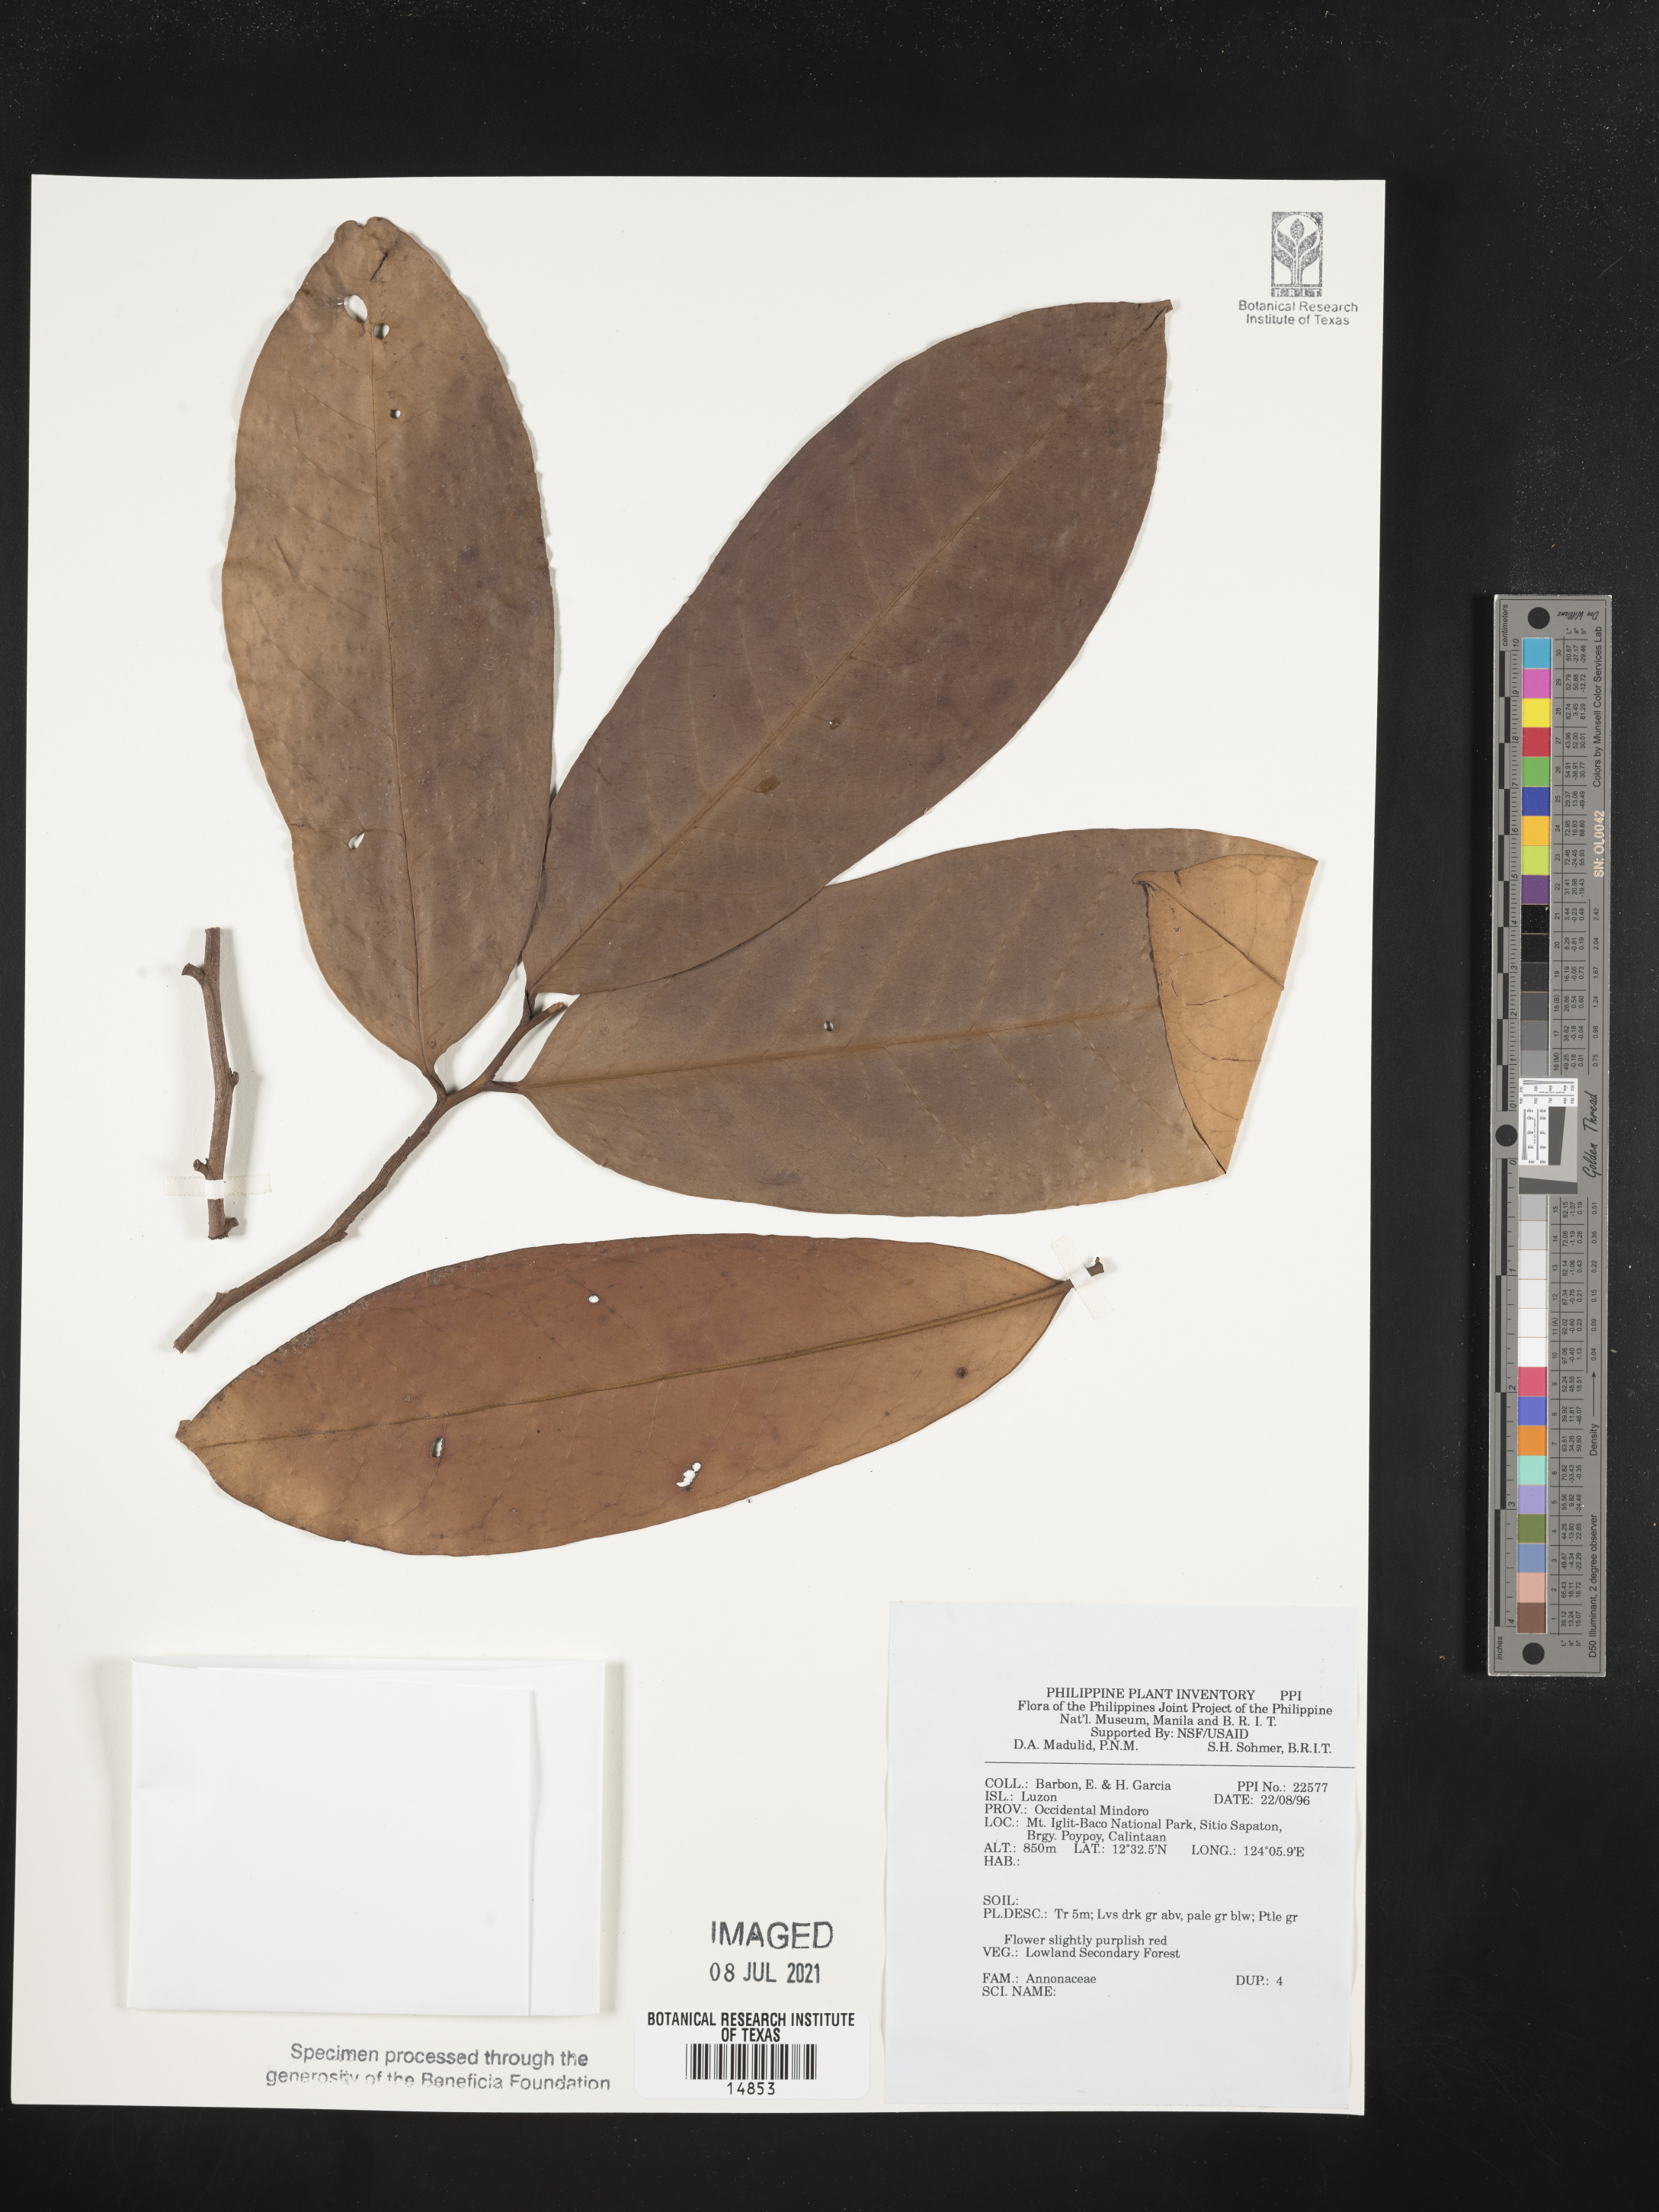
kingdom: Plantae
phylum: Tracheophyta
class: Magnoliopsida
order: Magnoliales
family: Annonaceae
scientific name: Annonaceae
